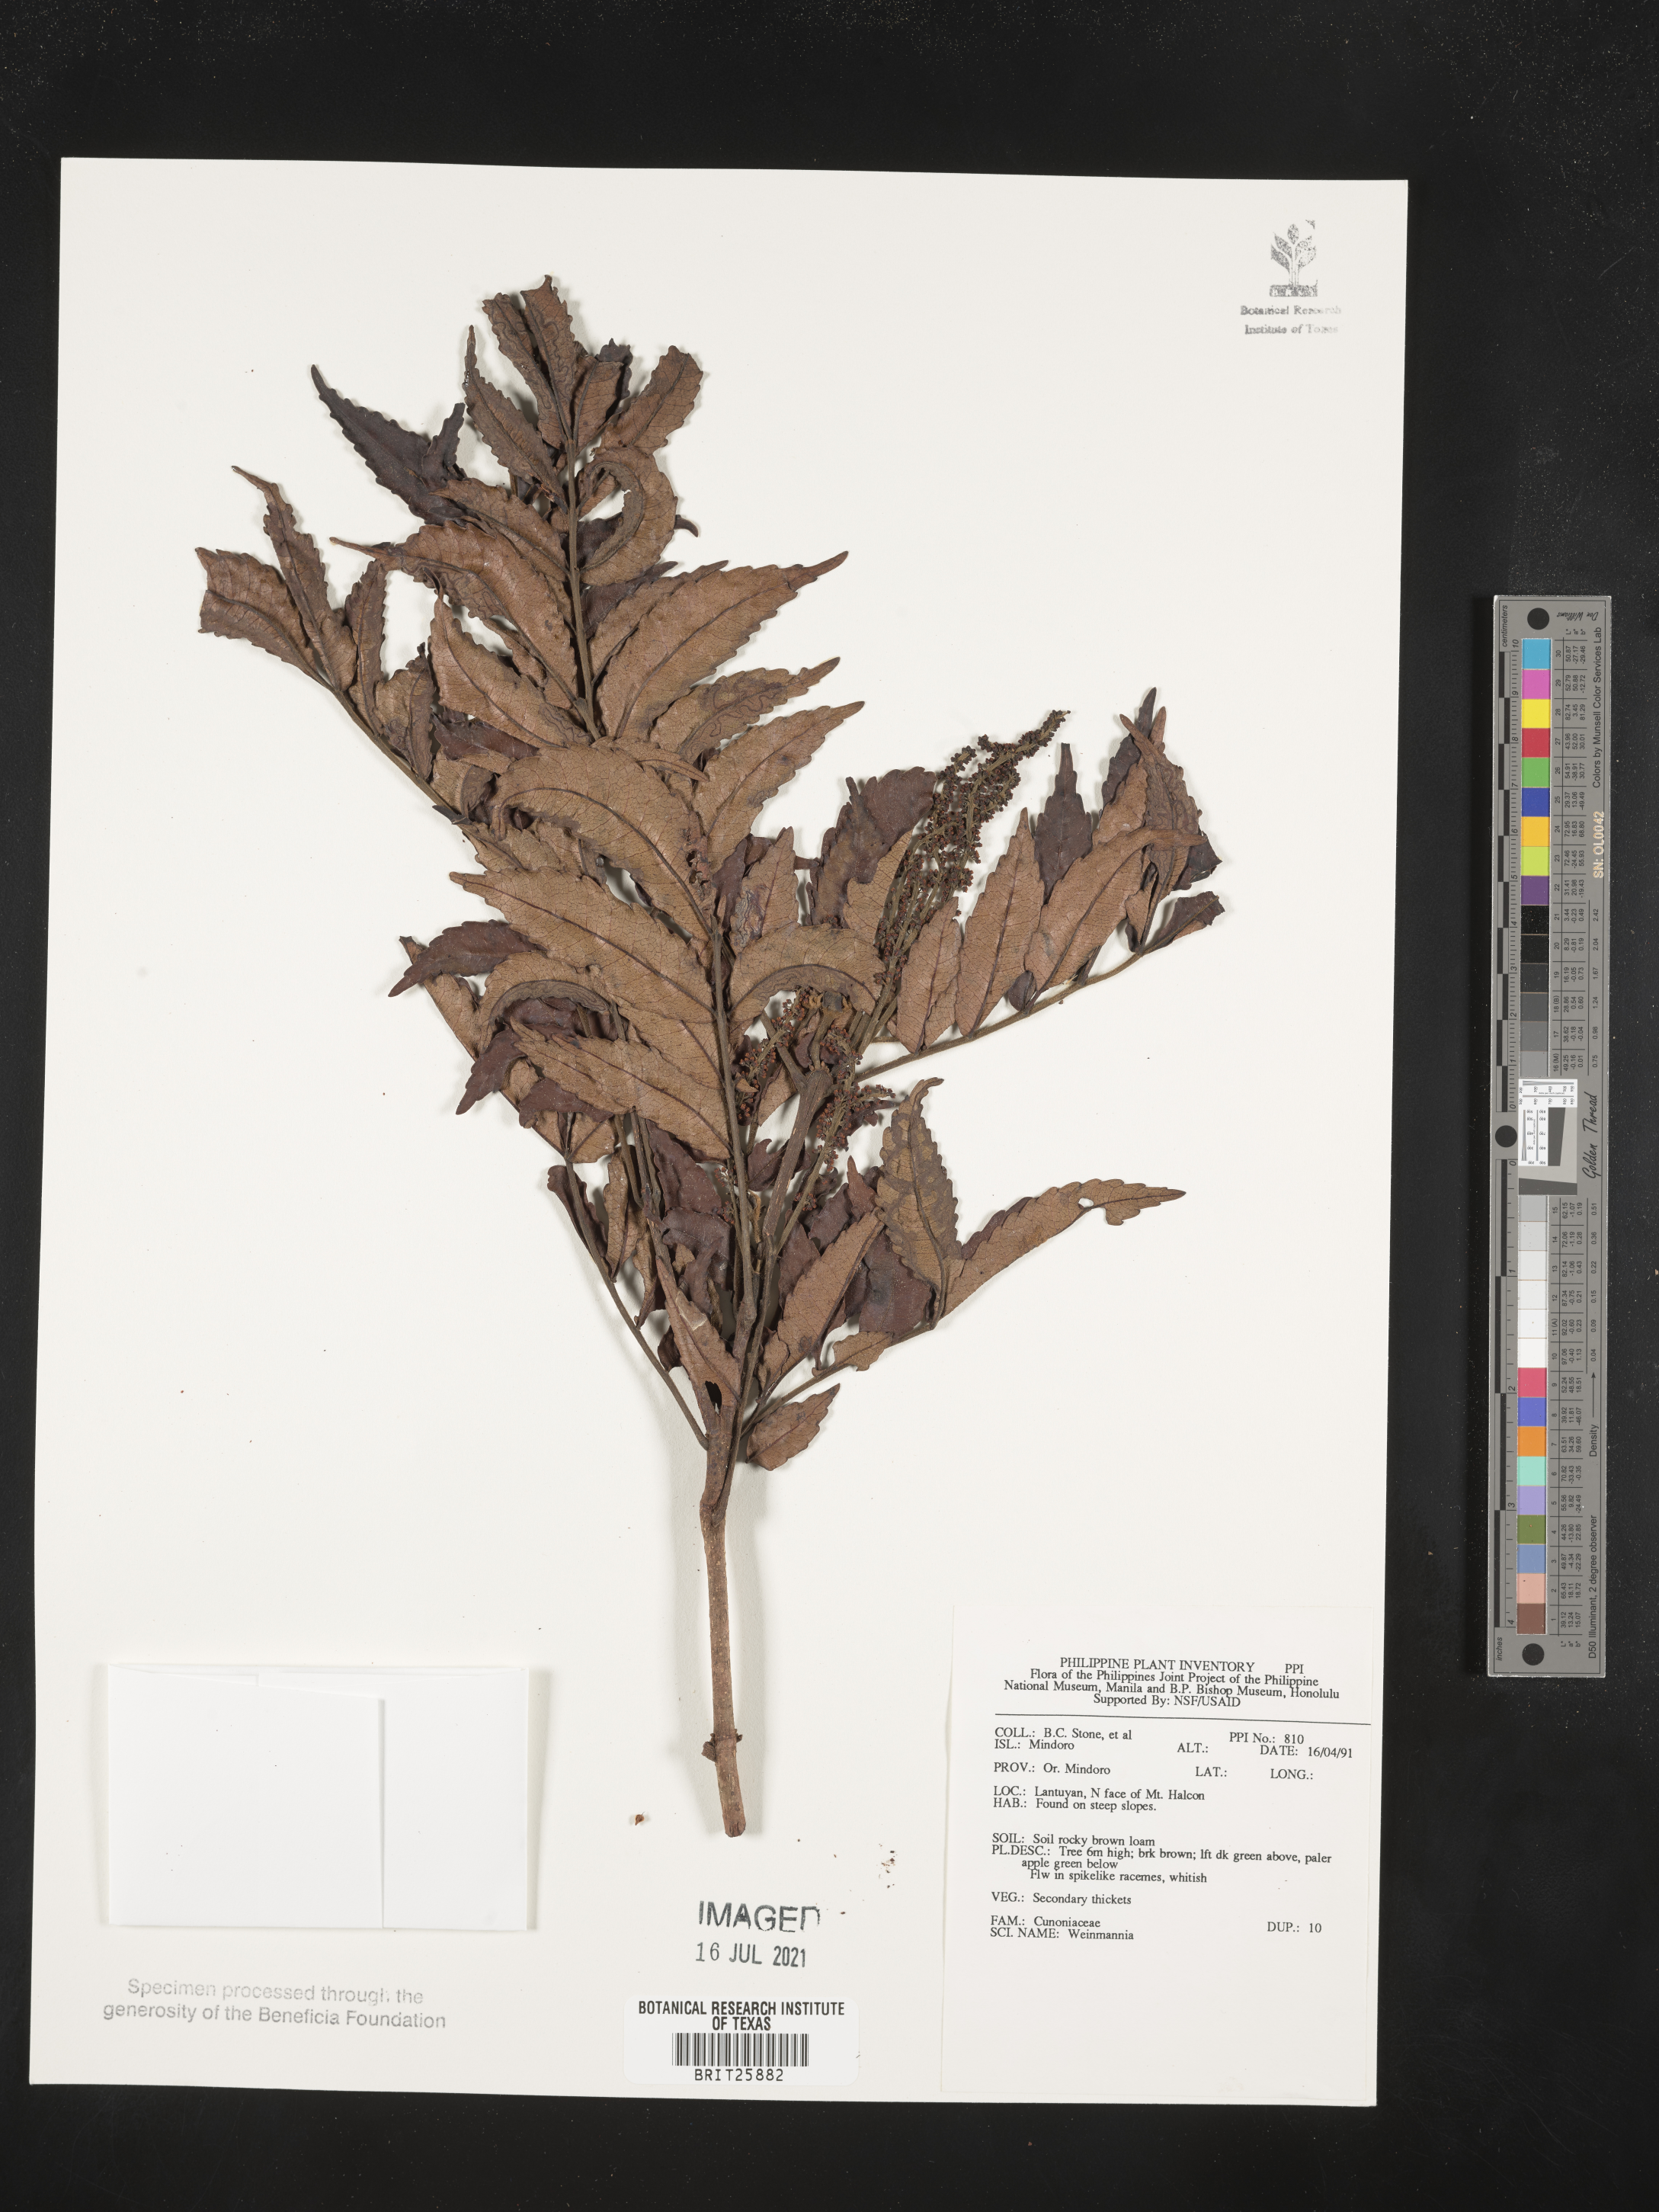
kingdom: Plantae
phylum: Tracheophyta
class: Magnoliopsida
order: Oxalidales
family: Cunoniaceae
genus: Weinmannia
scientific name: Weinmannia
